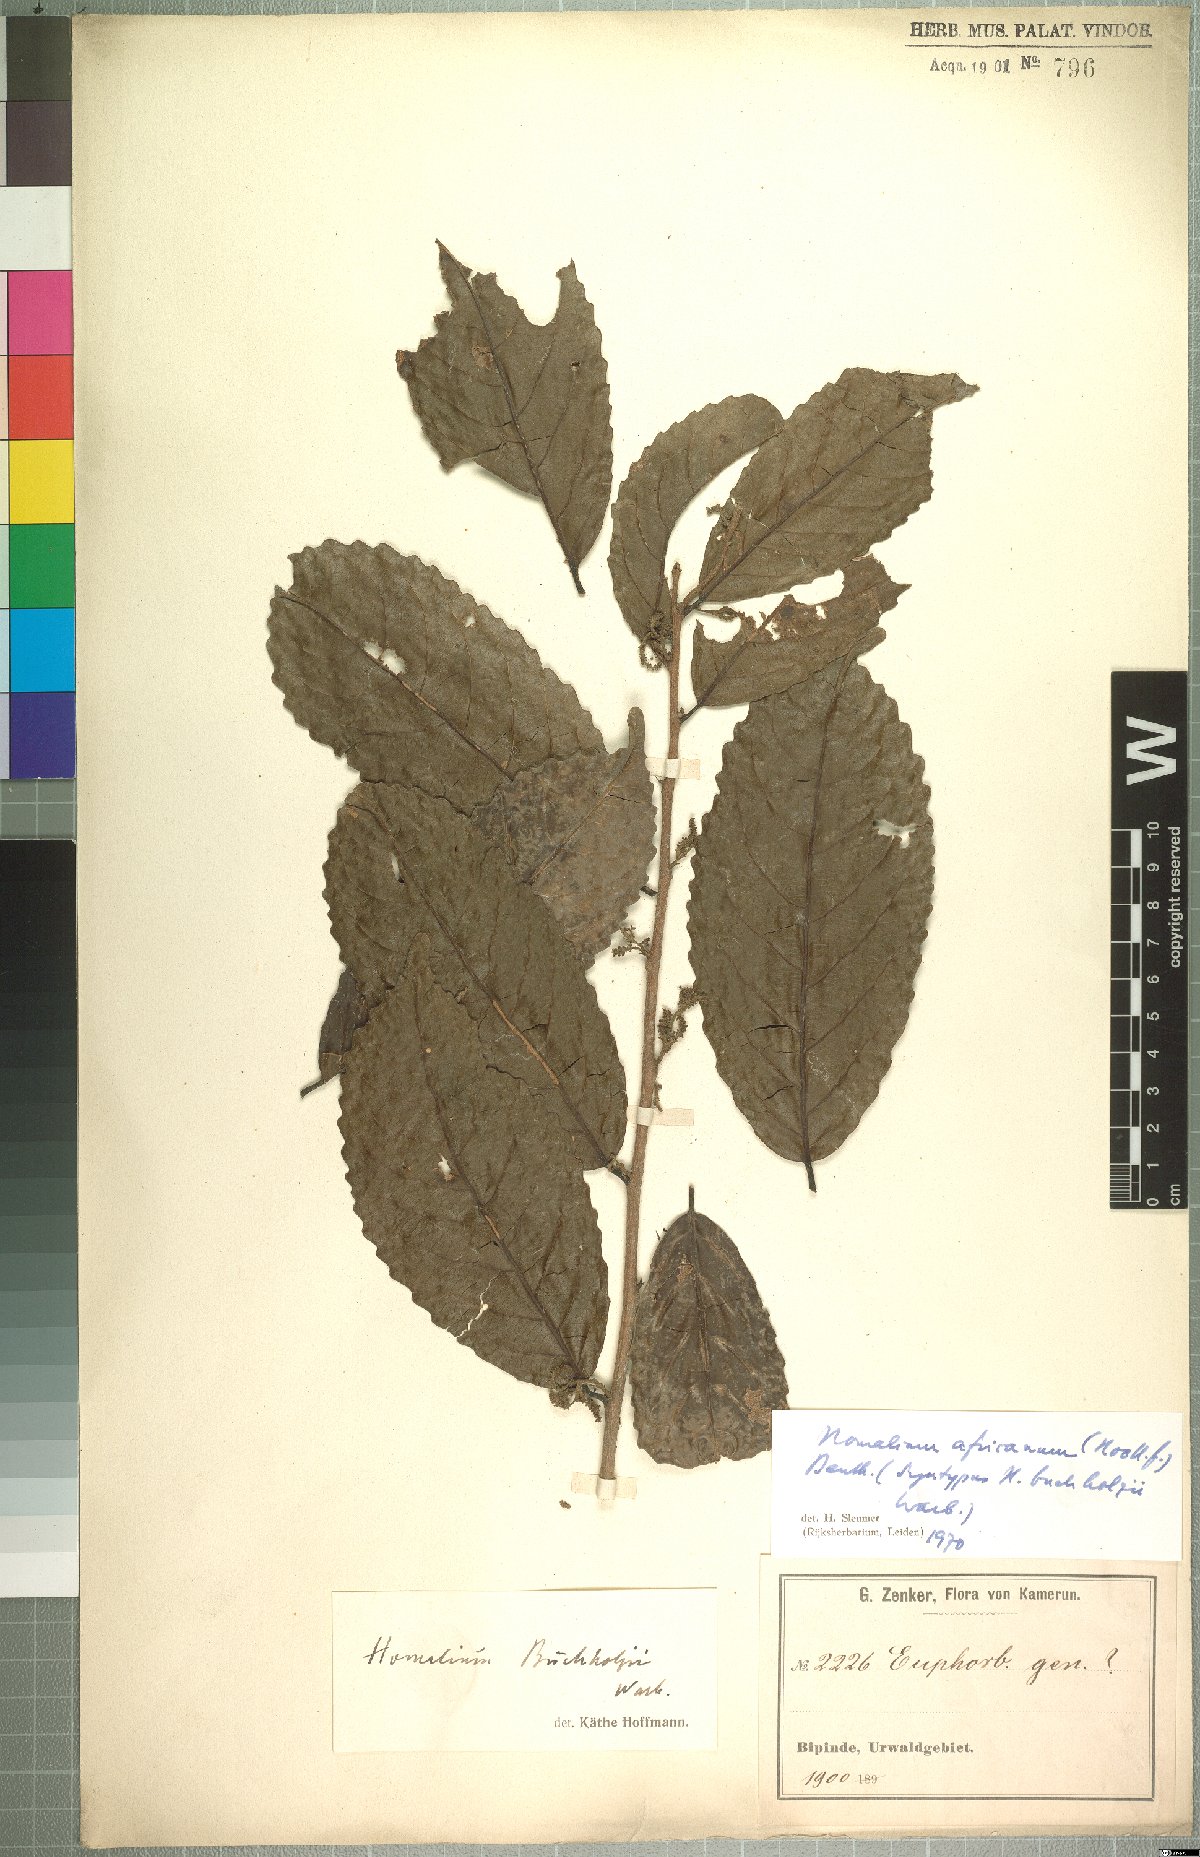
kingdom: Plantae
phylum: Tracheophyta
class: Magnoliopsida
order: Malpighiales
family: Salicaceae
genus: Homalium
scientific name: Homalium africanum
